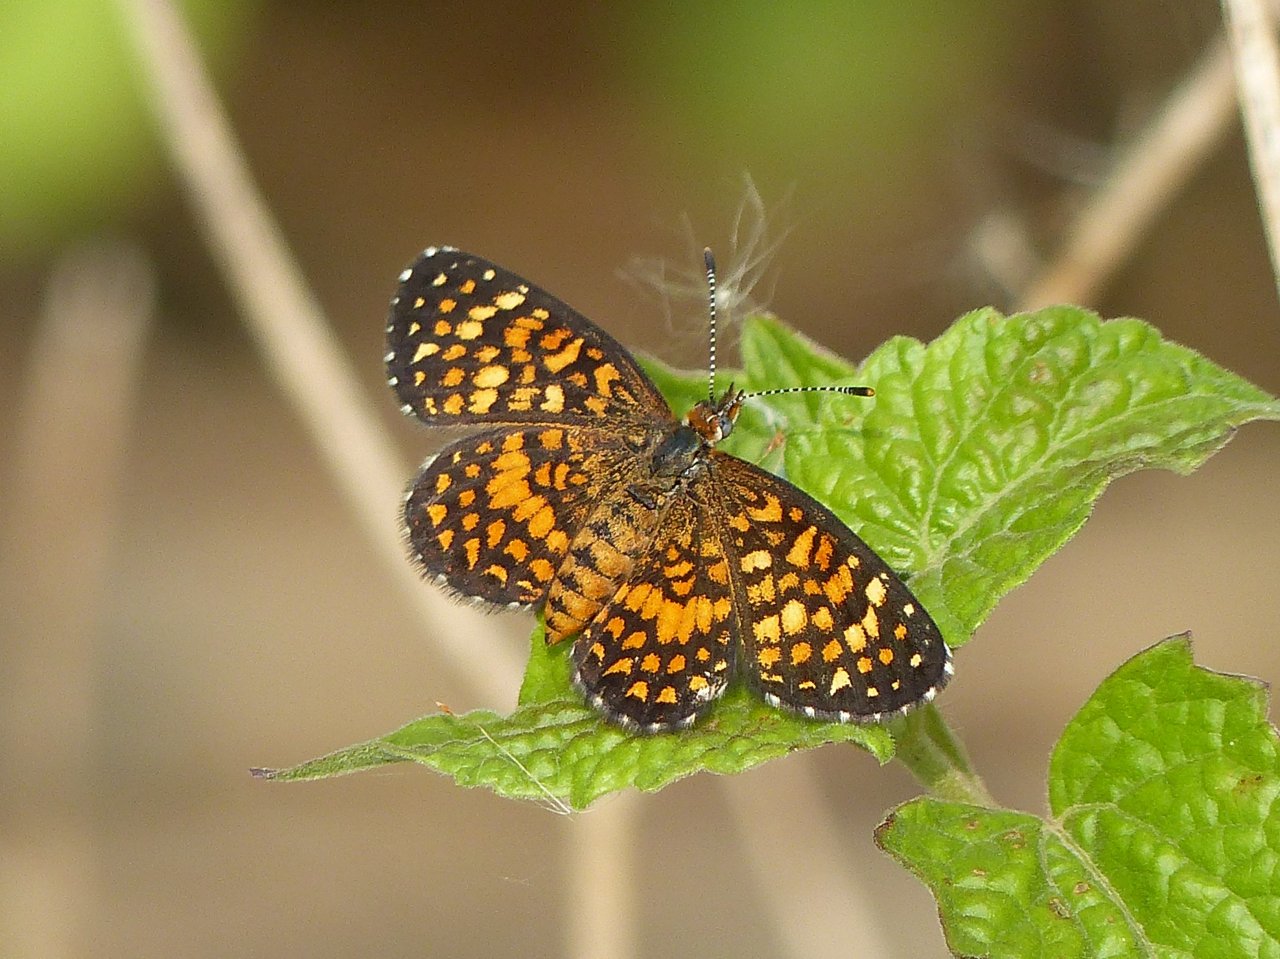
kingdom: Animalia
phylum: Arthropoda
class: Insecta
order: Lepidoptera
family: Nymphalidae
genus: Texola
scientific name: Texola elada
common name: Elada Checkerspot
